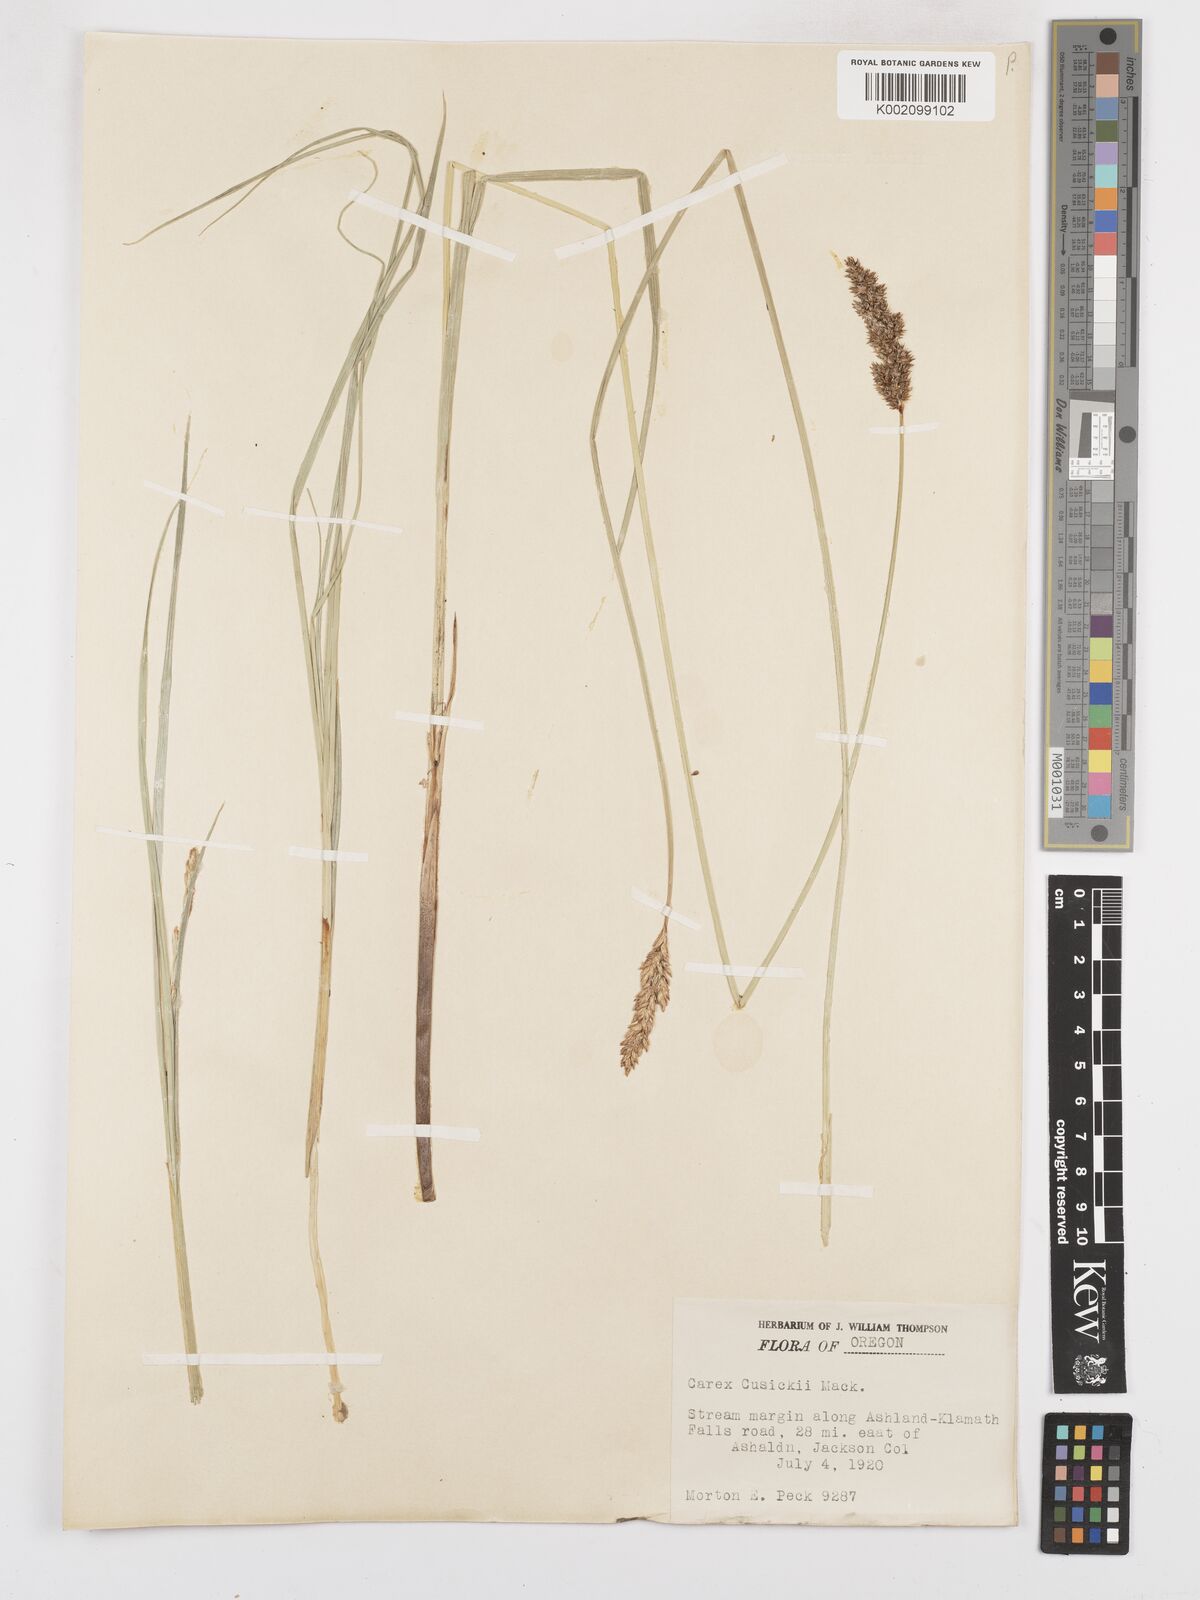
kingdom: Plantae
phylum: Tracheophyta
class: Liliopsida
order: Poales
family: Cyperaceae
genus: Carex
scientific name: Carex cusickii
